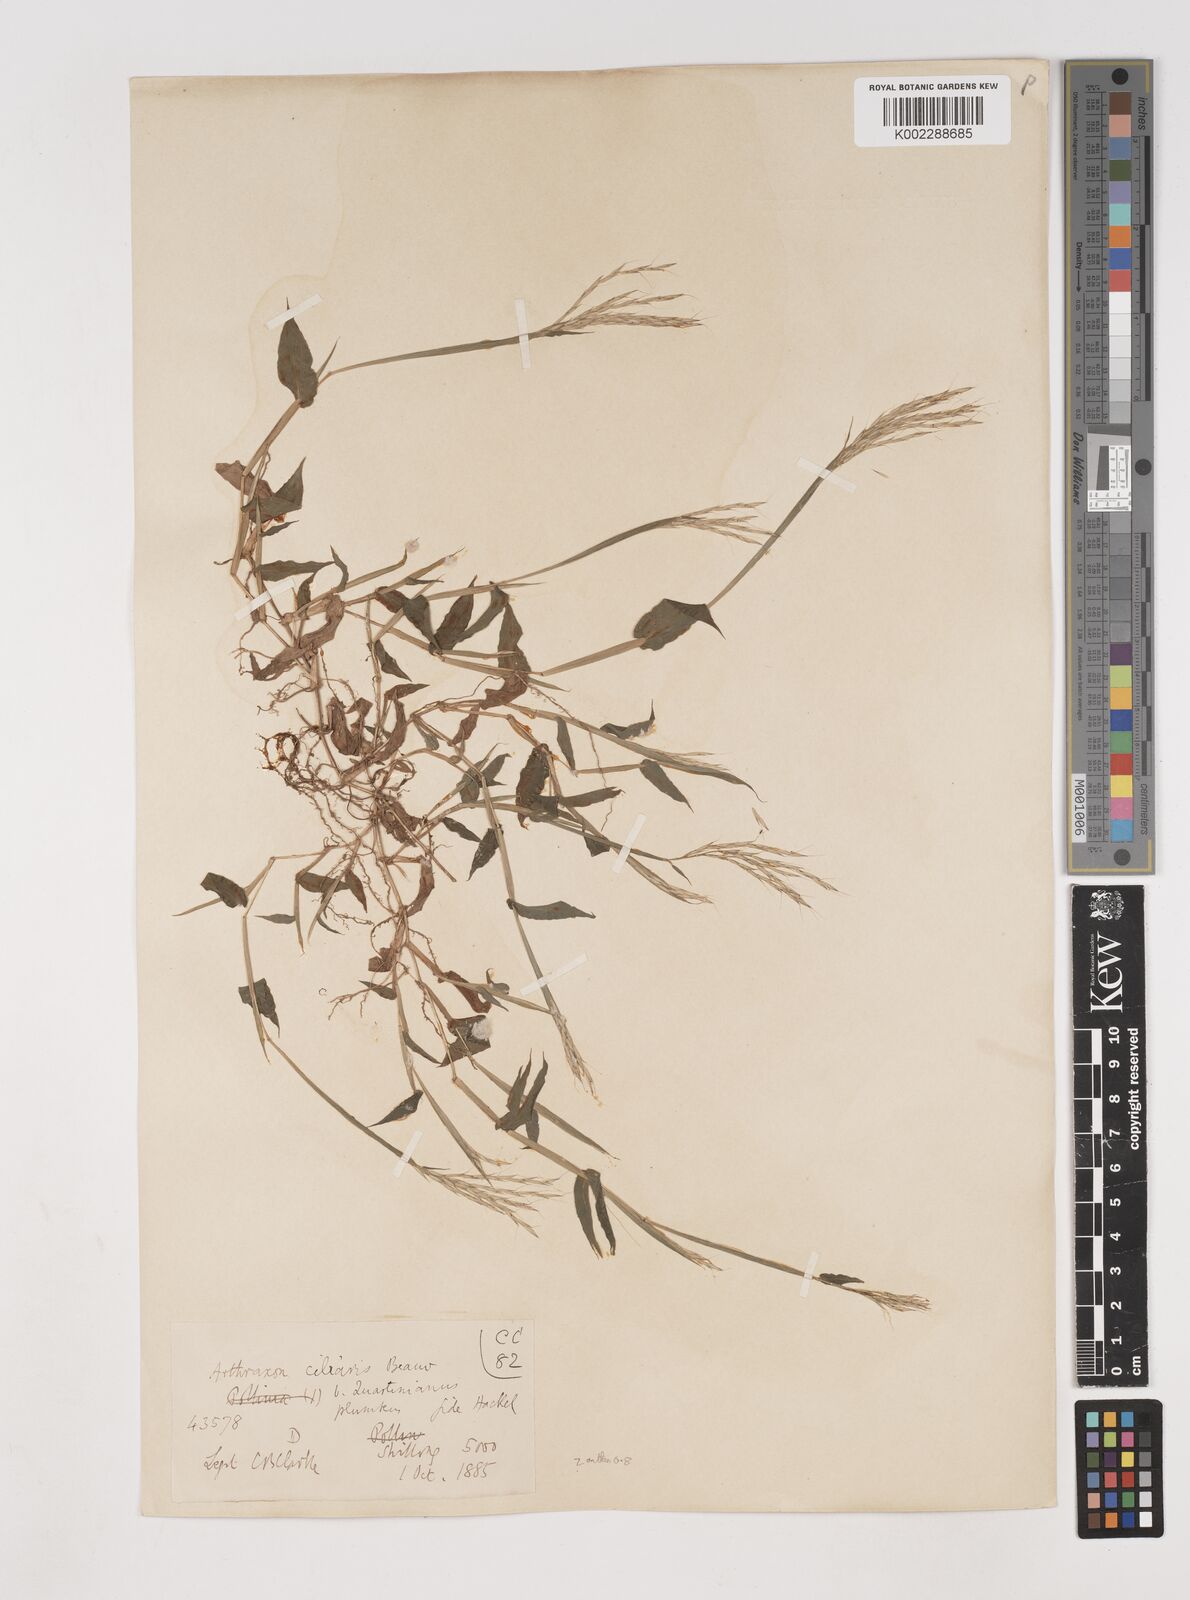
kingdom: Plantae
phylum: Tracheophyta
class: Liliopsida
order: Poales
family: Poaceae
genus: Arthraxon
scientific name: Arthraxon hispidus
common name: Small carpgrass
